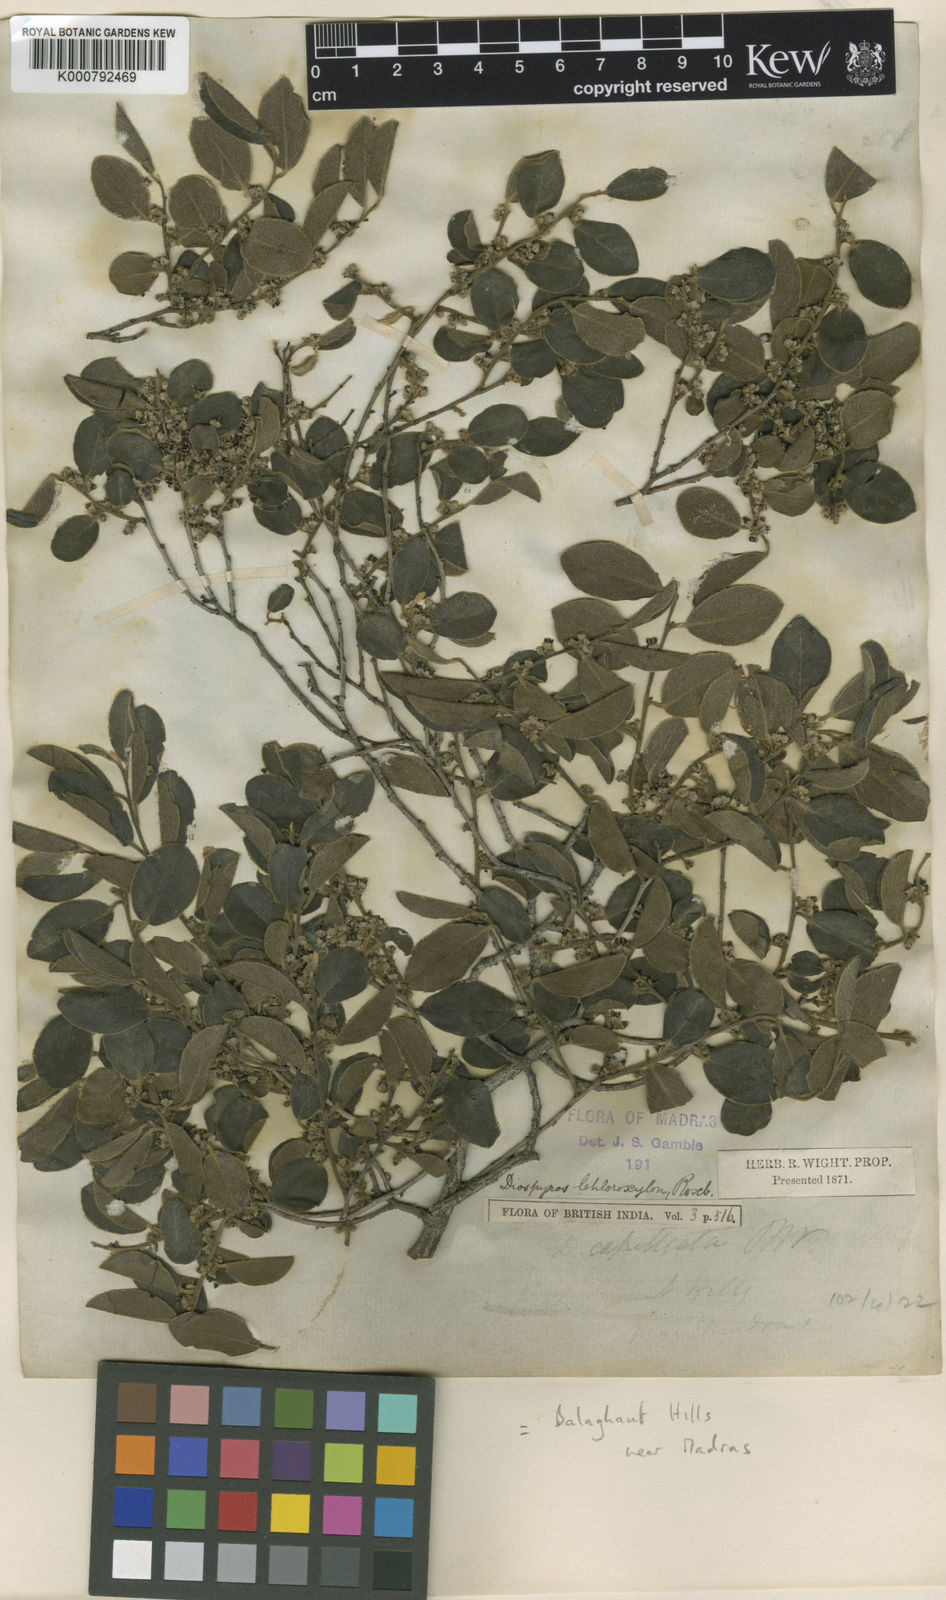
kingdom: Plantae
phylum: Tracheophyta
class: Magnoliopsida
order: Ericales
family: Ebenaceae
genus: Diospyros
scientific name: Diospyros chloroxylon
